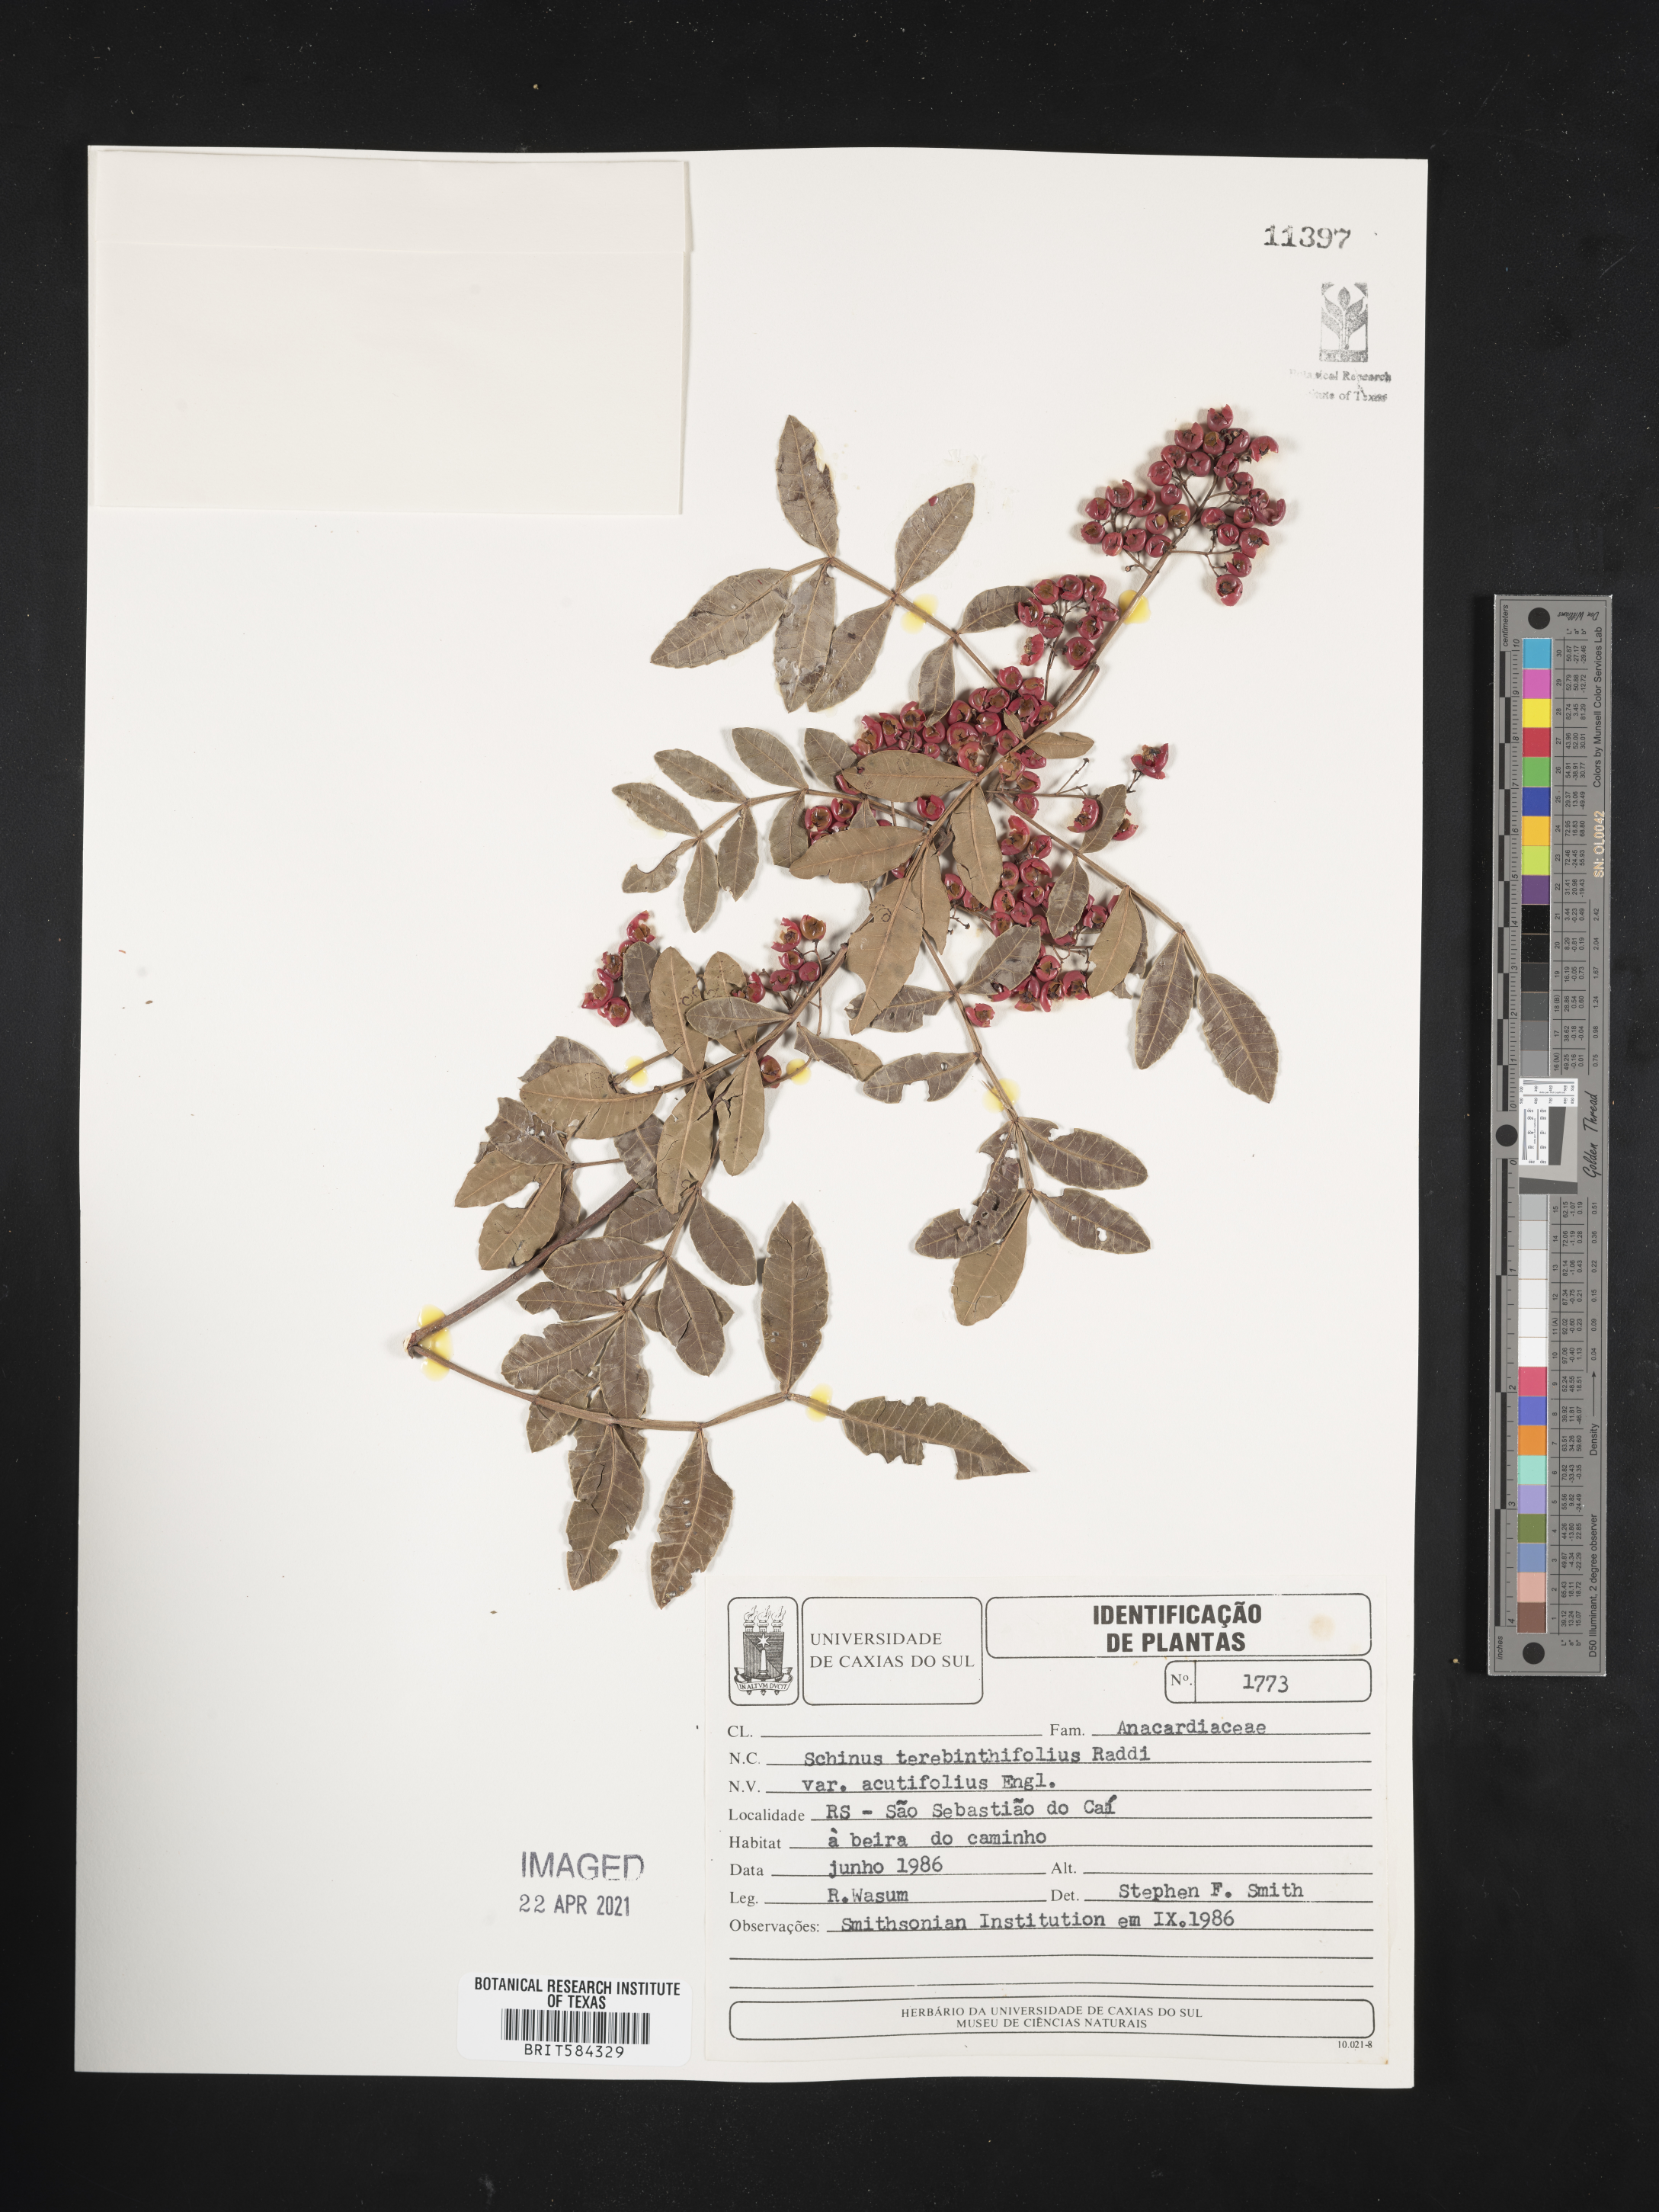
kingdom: Plantae
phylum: Tracheophyta
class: Magnoliopsida
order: Sapindales
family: Anacardiaceae
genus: Schinus
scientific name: Schinus terebinthifolia
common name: Brazilian peppertree
